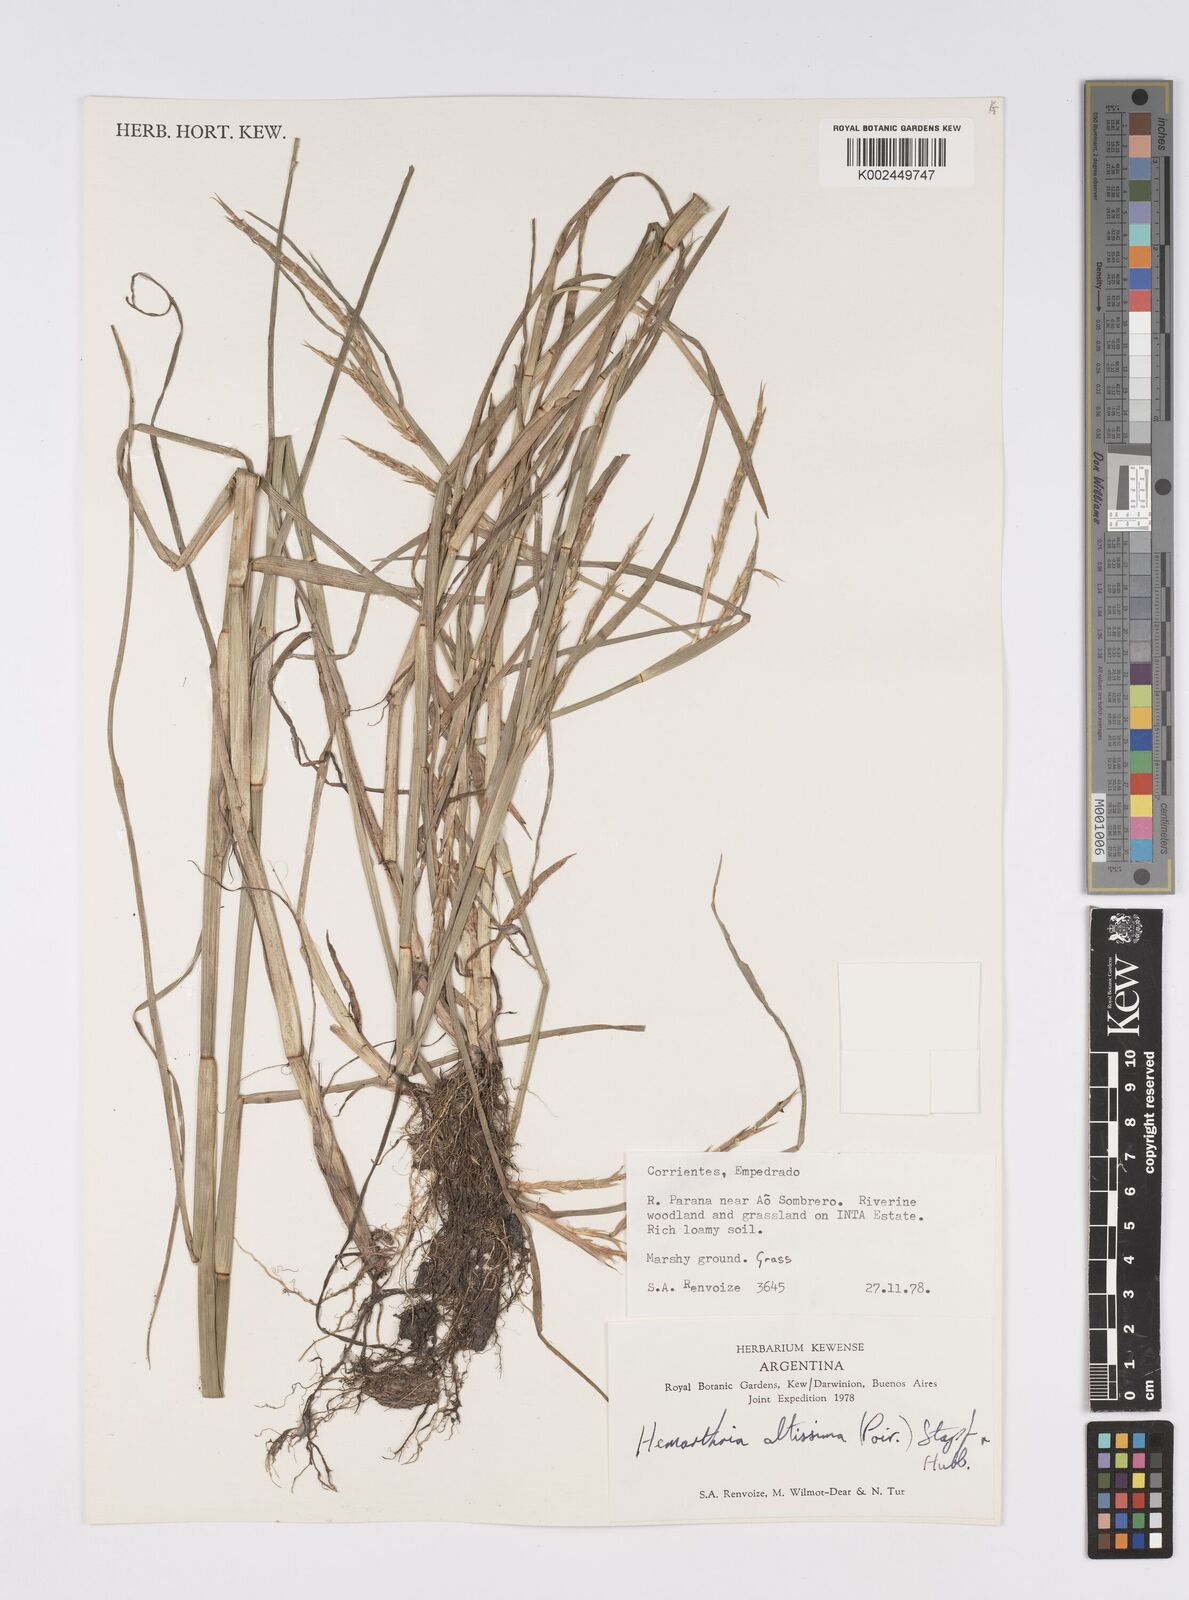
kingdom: Plantae
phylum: Tracheophyta
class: Liliopsida
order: Poales
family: Poaceae
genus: Hemarthria
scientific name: Hemarthria altissima
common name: African jointgrass
